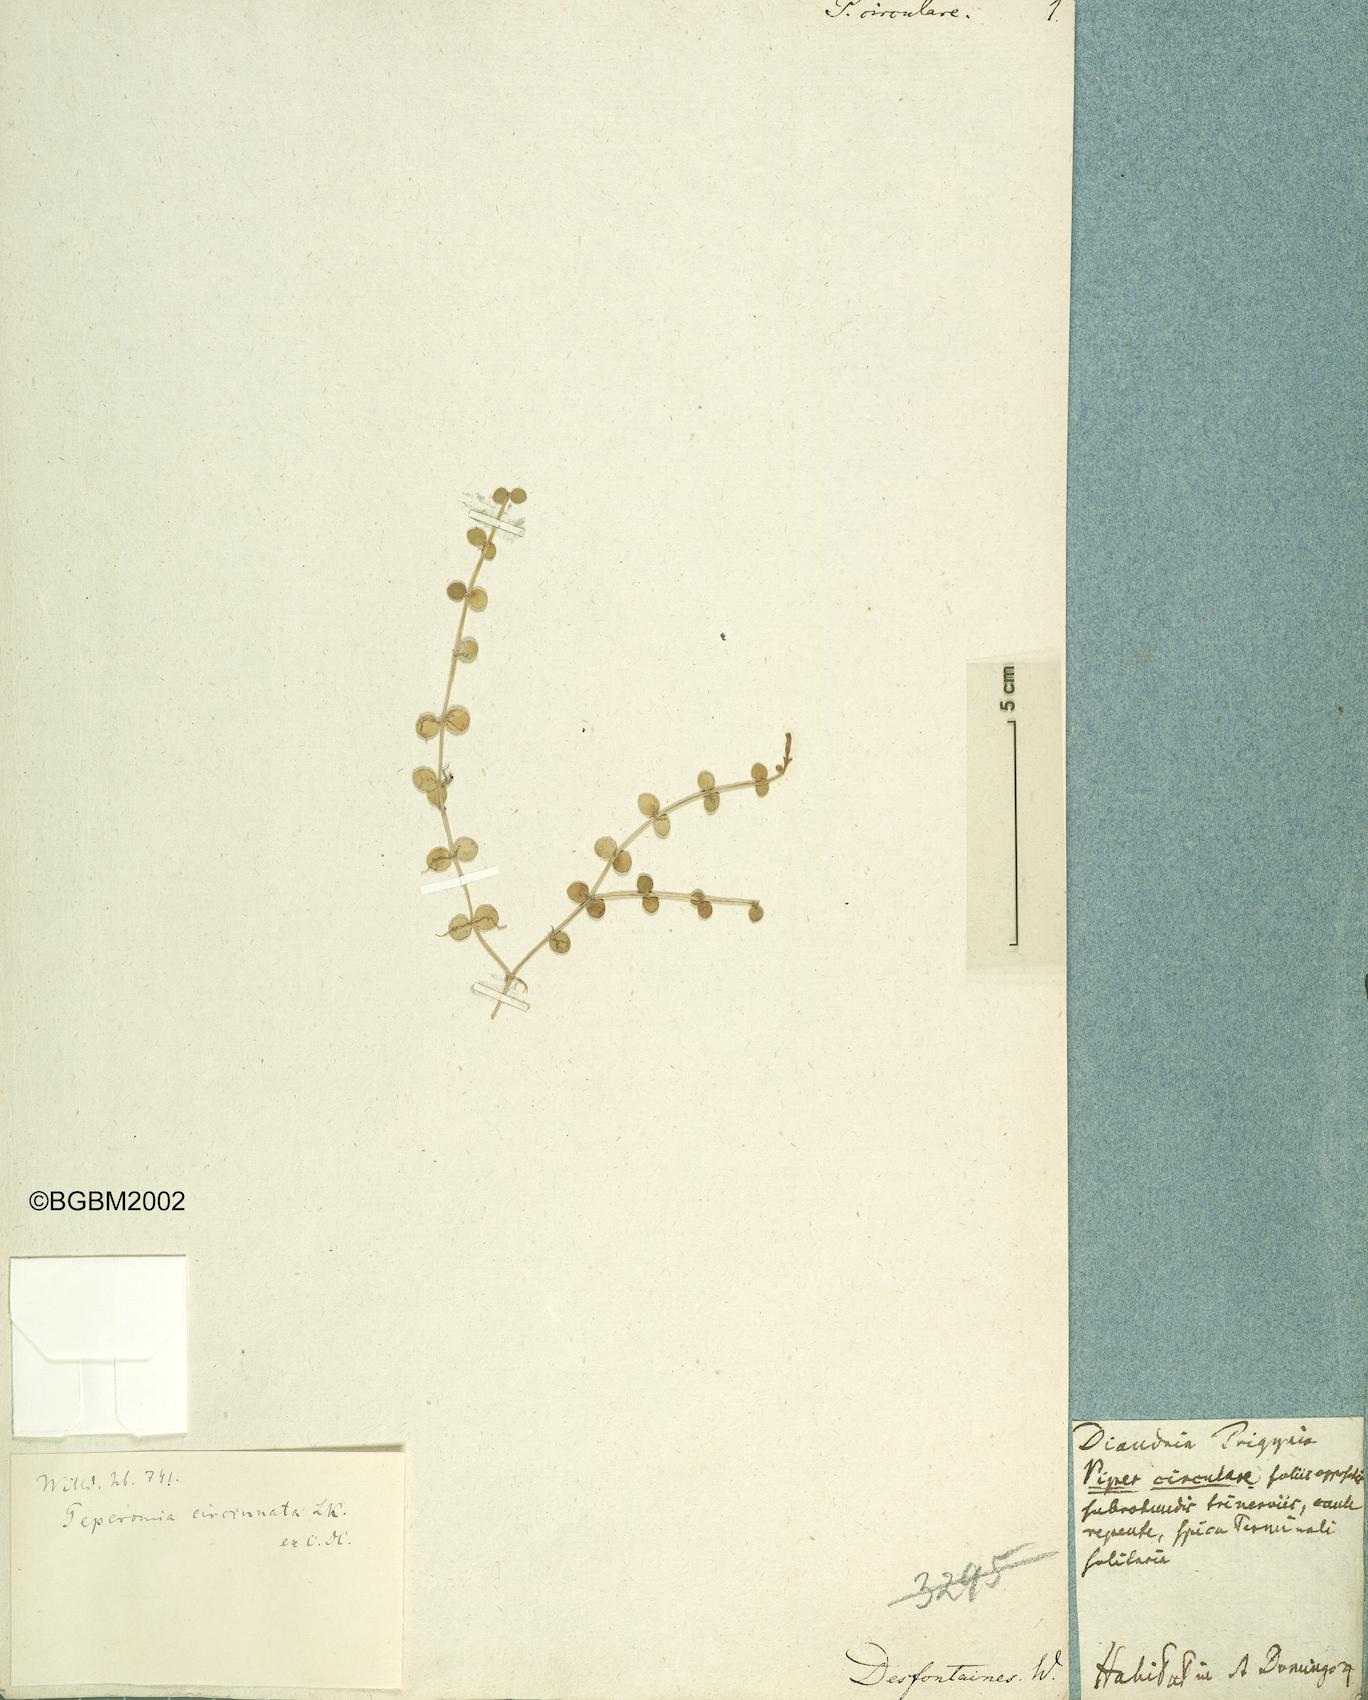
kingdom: Plantae
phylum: Tracheophyta
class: Magnoliopsida
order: Piperales
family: Piperaceae
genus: Peperomia
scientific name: Peperomia circinnata
